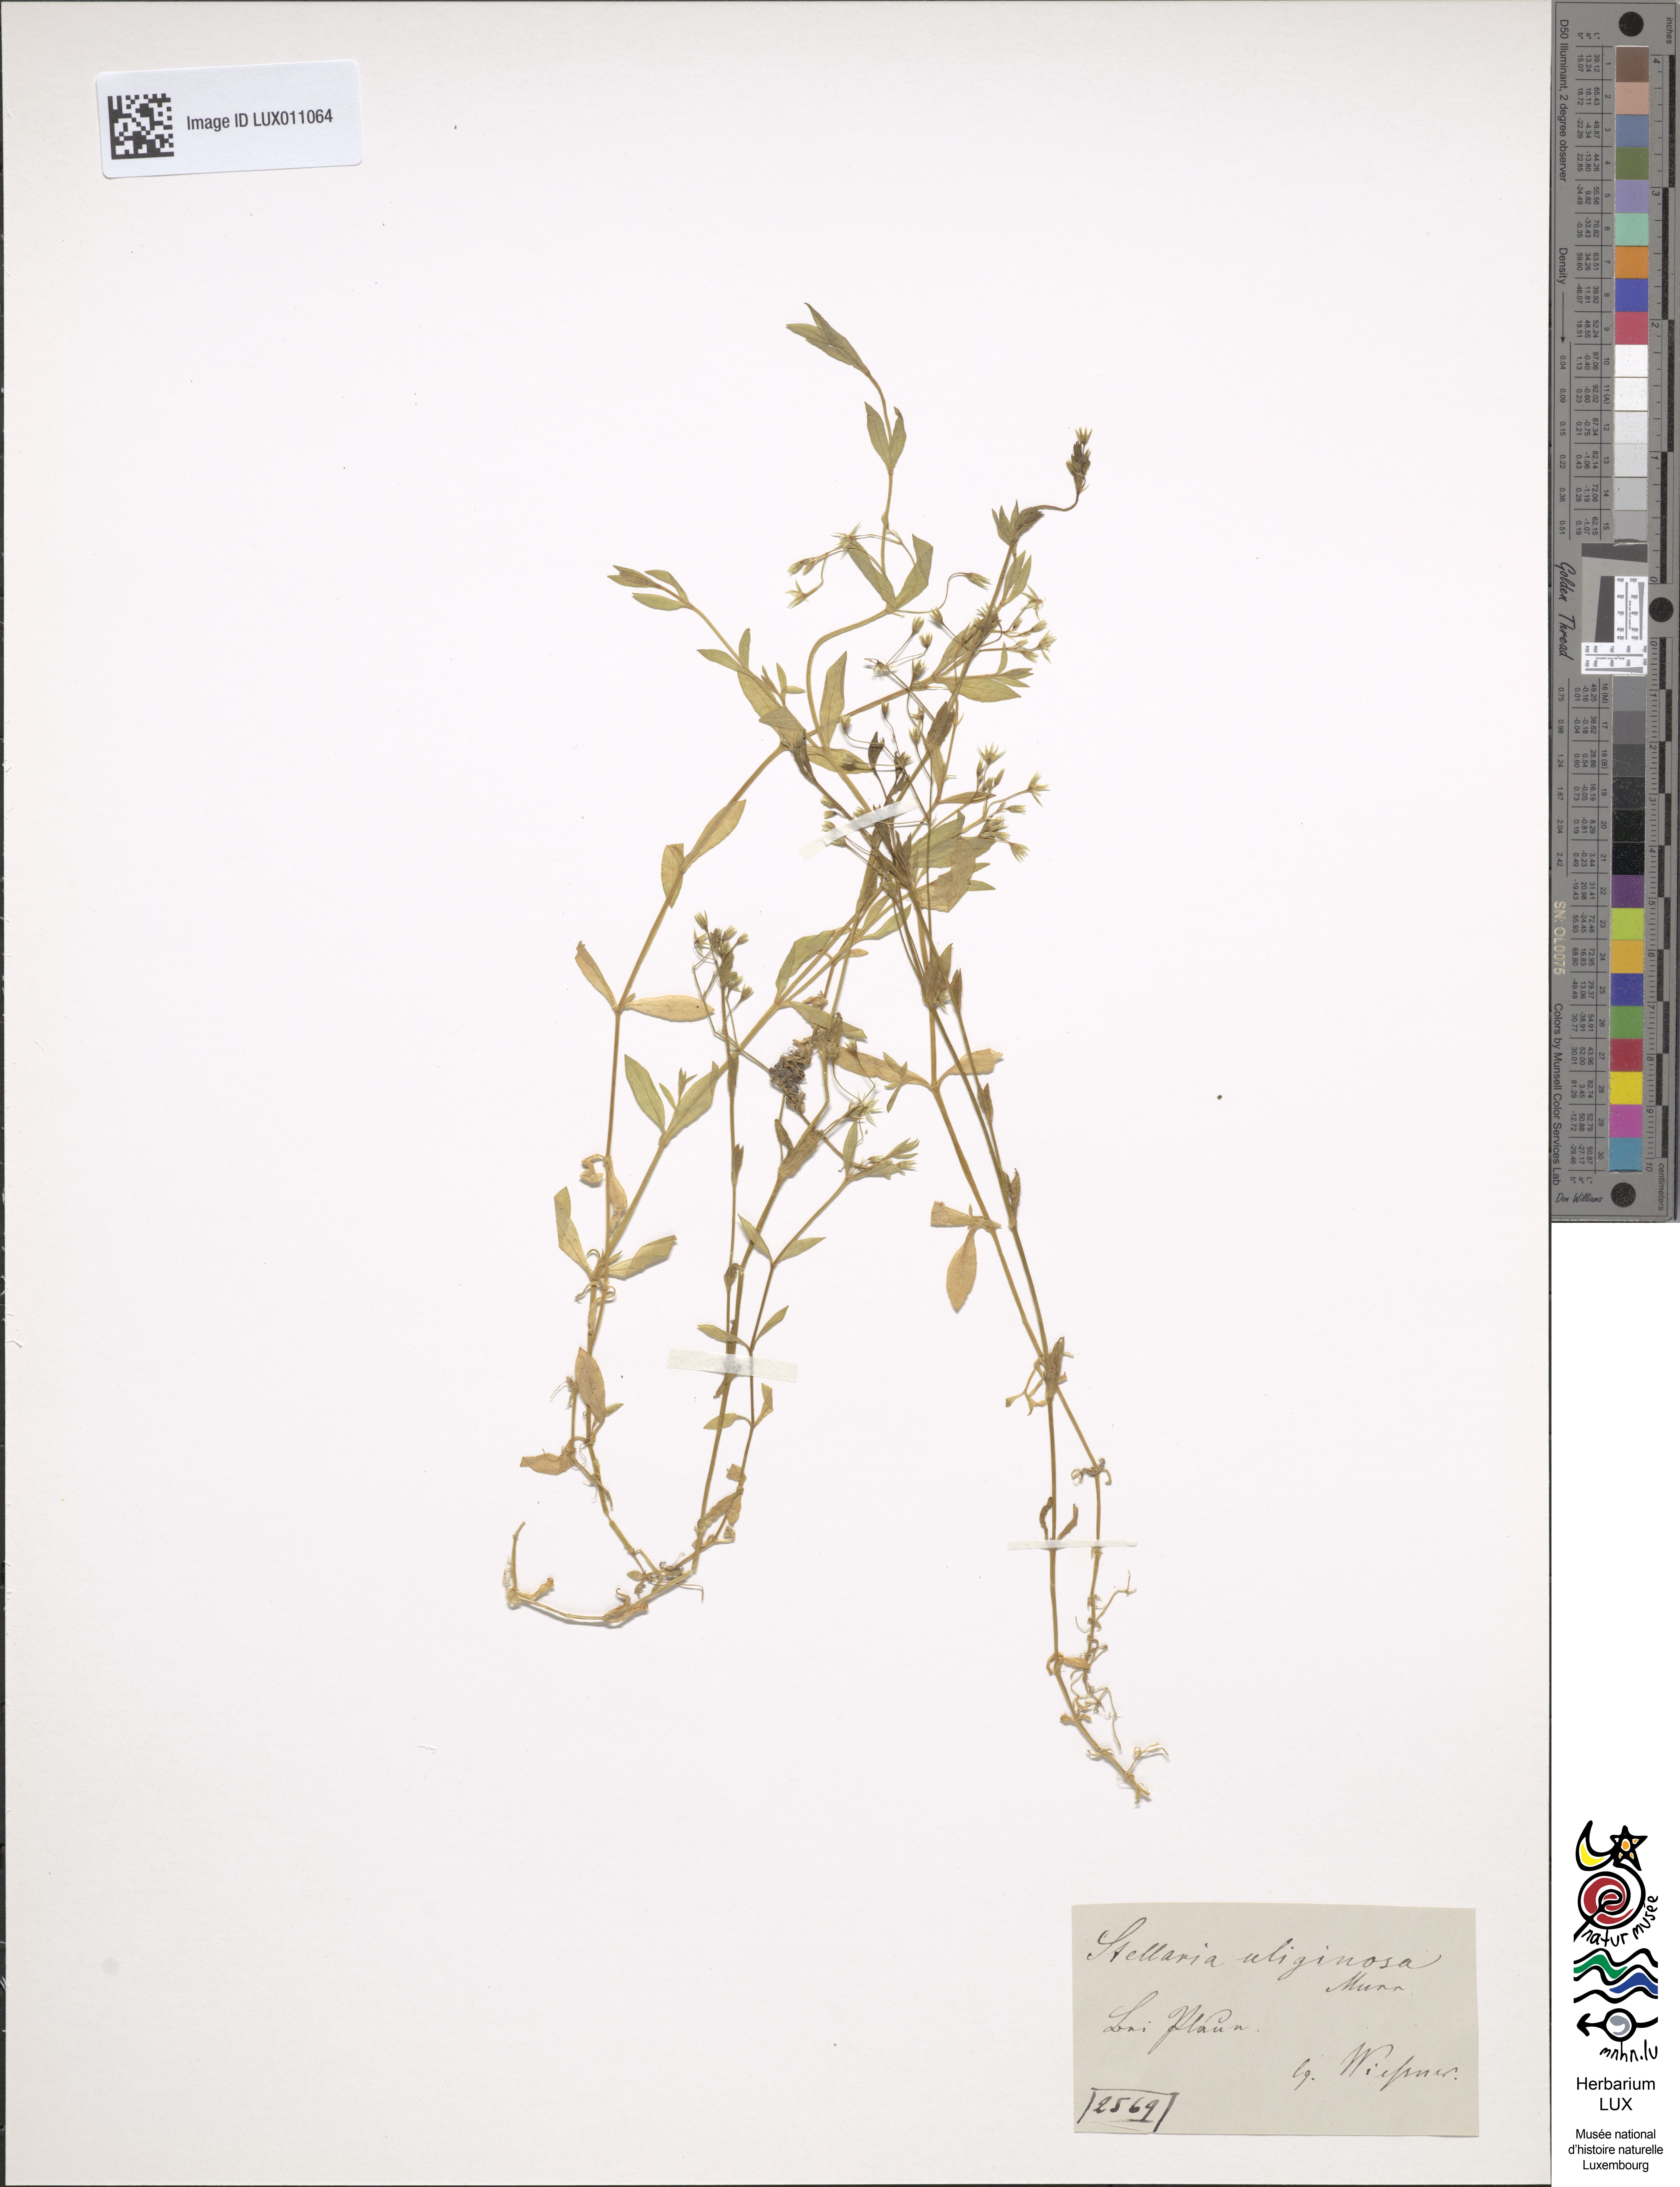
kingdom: Plantae
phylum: Tracheophyta
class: Magnoliopsida
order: Caryophyllales
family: Caryophyllaceae
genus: Stellaria
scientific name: Stellaria alsine
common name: Bog stitchwort
